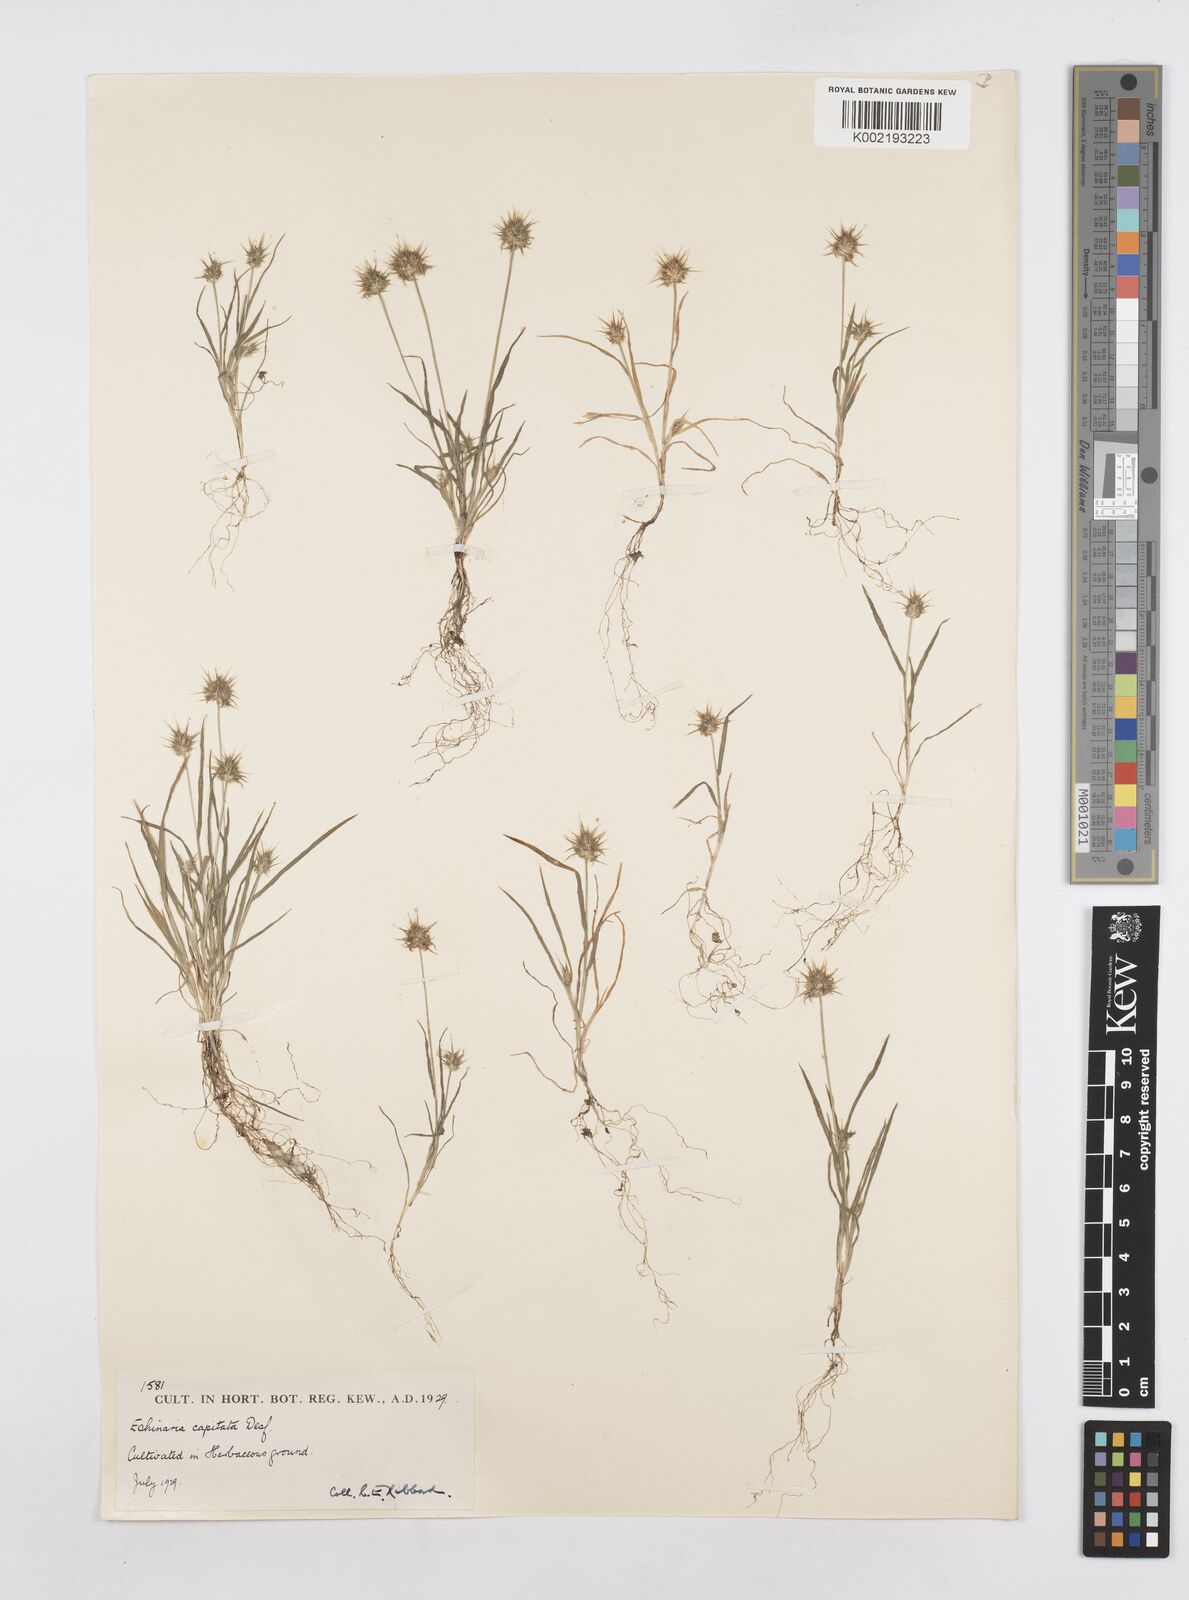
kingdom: Plantae
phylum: Tracheophyta
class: Liliopsida
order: Poales
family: Poaceae
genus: Echinaria
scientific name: Echinaria capitata
